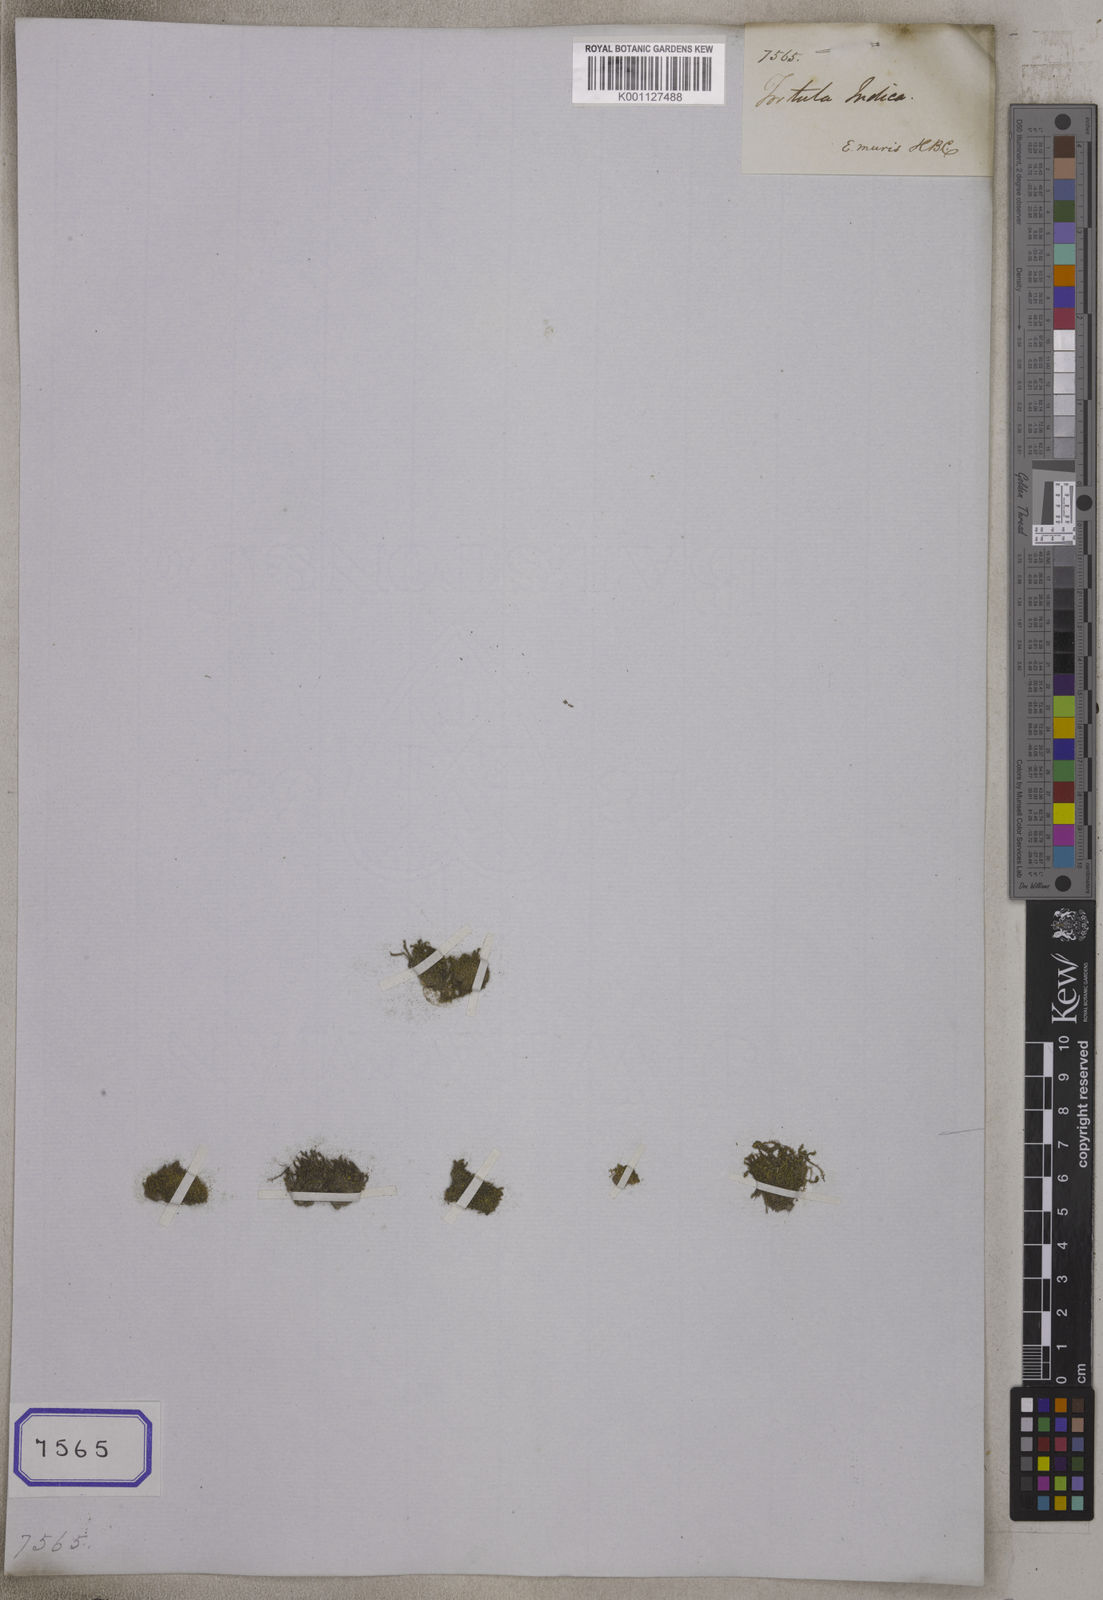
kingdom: Plantae
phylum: Bryophyta
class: Bryopsida
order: Hypnales
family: Meteoriaceae
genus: Tortula
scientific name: Tortula
